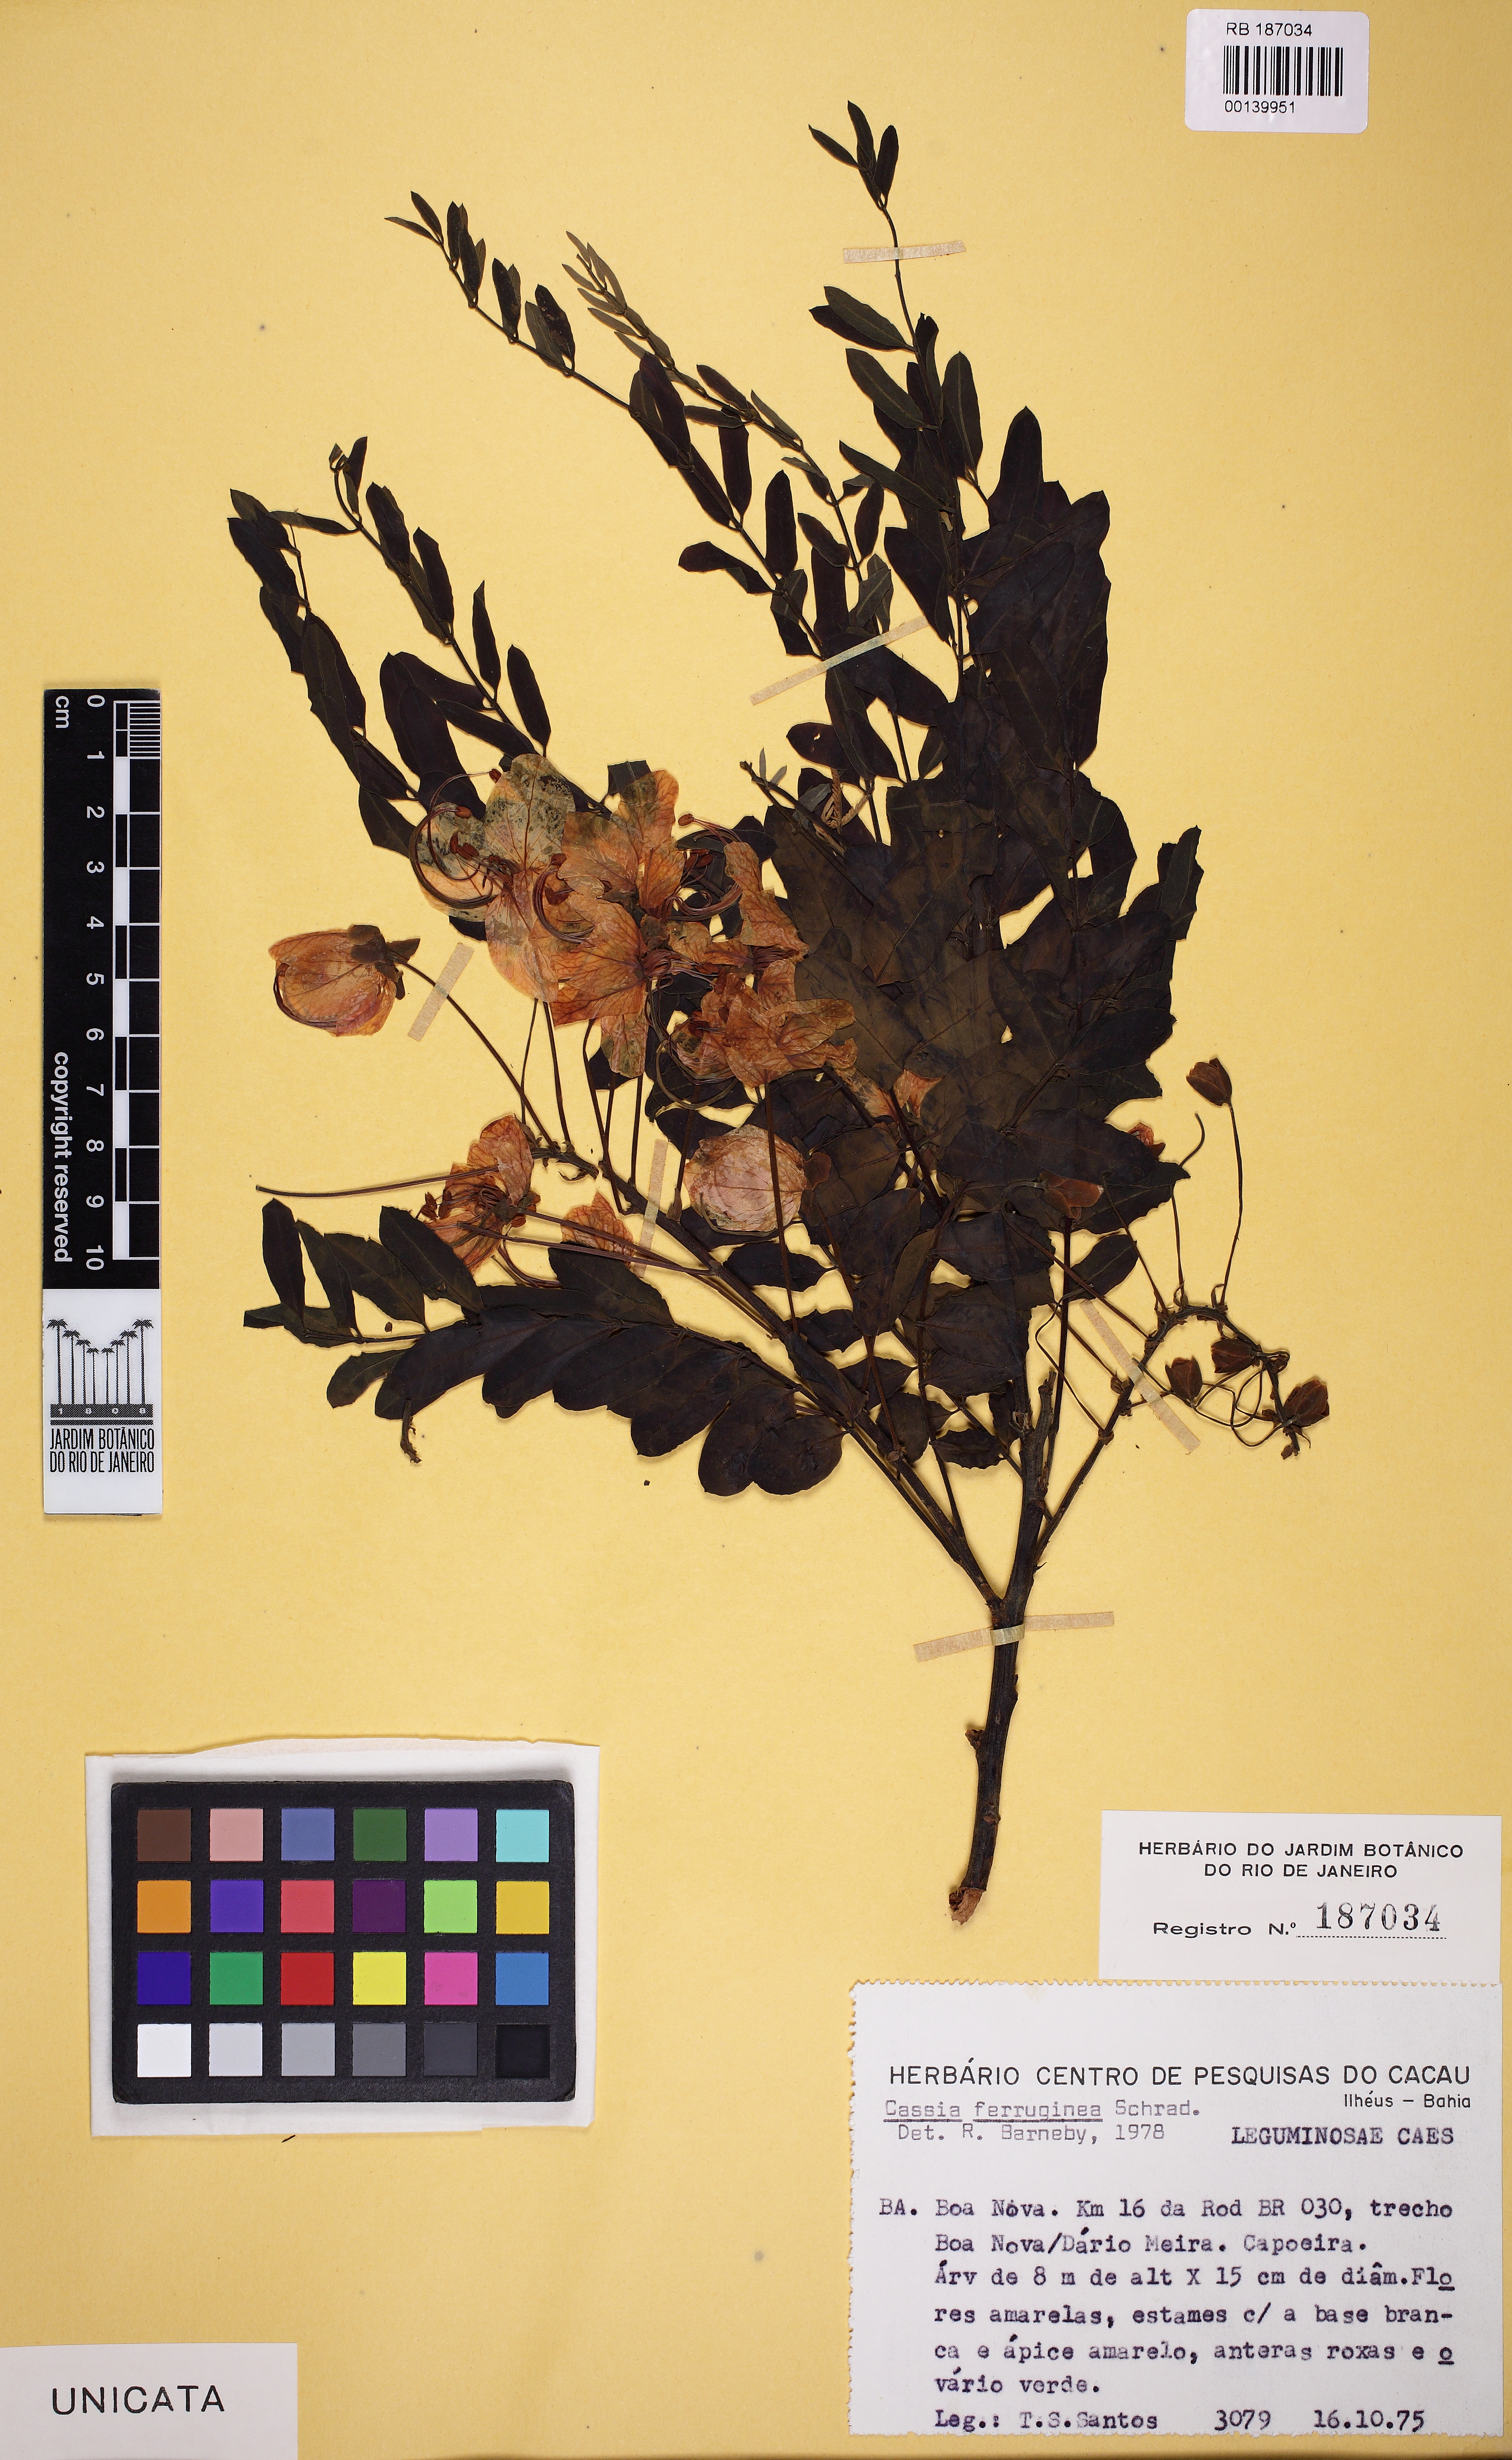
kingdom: Plantae
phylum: Tracheophyta
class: Magnoliopsida
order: Fabales
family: Fabaceae
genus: Cassia
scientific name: Cassia ferruginea
